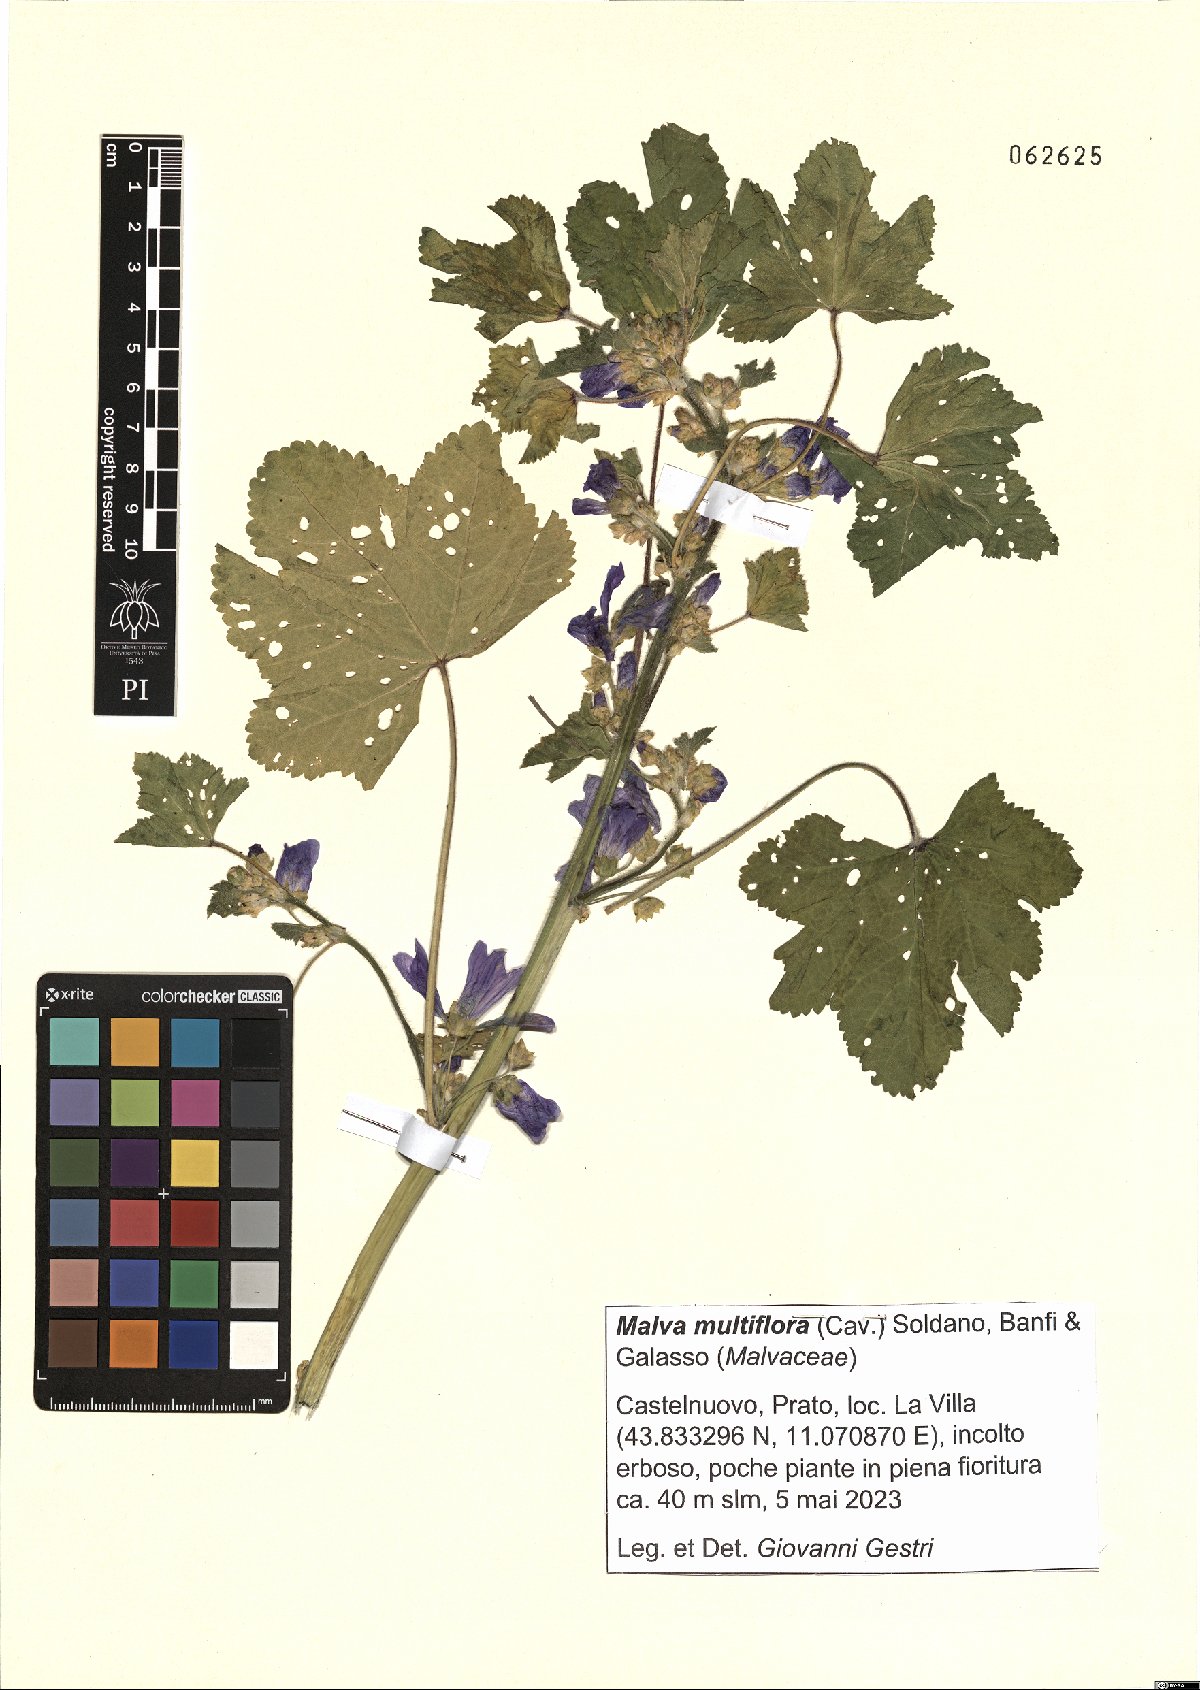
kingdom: Plantae
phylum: Tracheophyta
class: Magnoliopsida
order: Malvales
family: Malvaceae
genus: Malva
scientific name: Malva multiflora
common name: Cheeseweed
